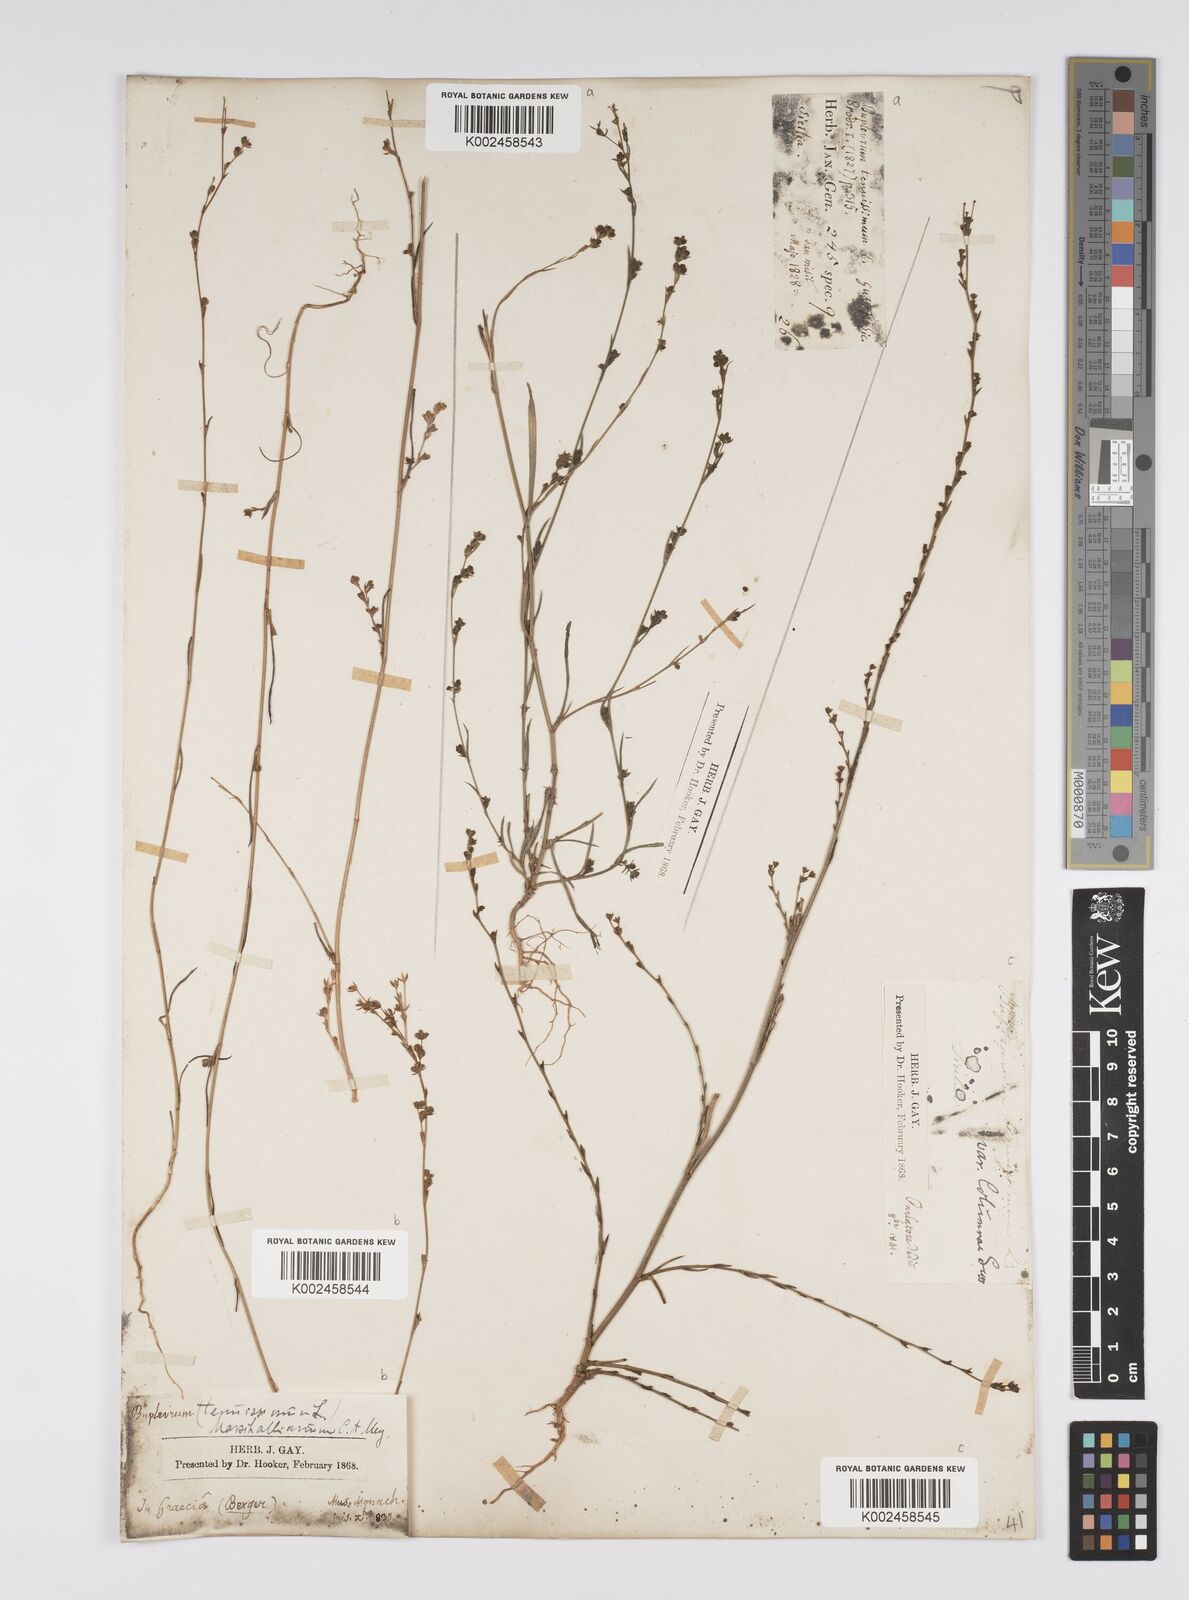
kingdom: Plantae
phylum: Tracheophyta
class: Magnoliopsida
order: Apiales
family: Apiaceae
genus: Bupleurum
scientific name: Bupleurum tenuissimum
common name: Slender hare's-ear
